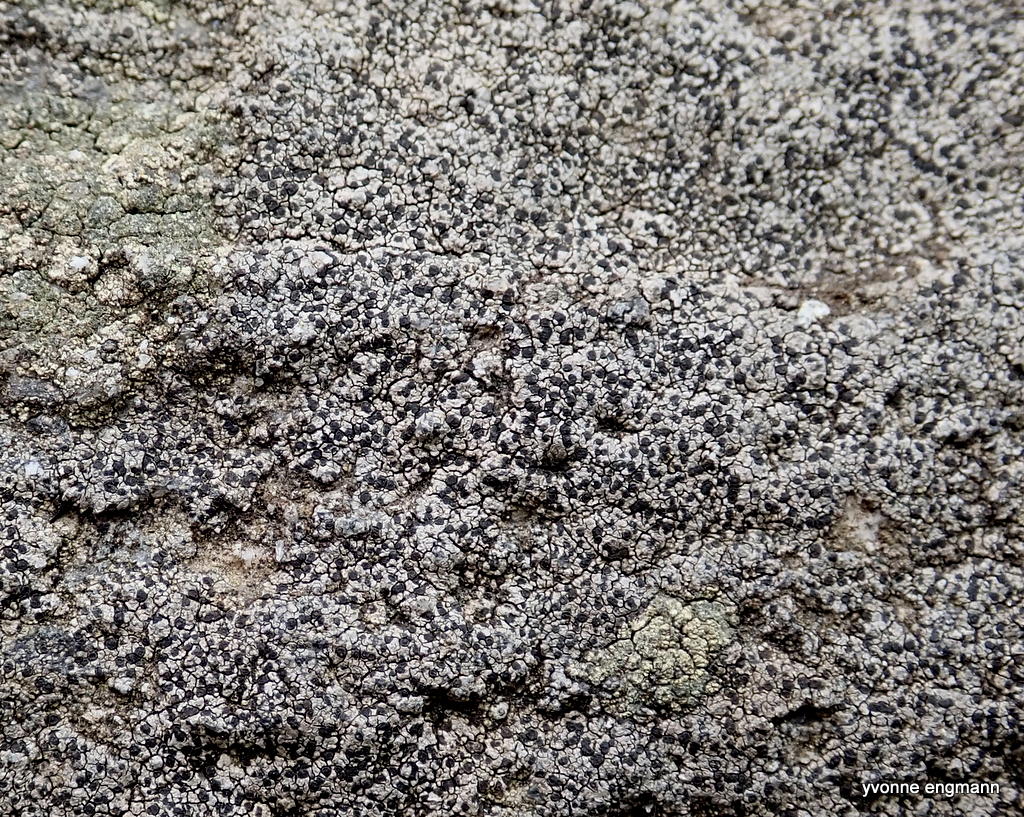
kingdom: Fungi
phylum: Ascomycota
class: Lecanoromycetes
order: Rhizocarpales
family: Rhizocarpaceae
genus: Rhizocarpon
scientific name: Rhizocarpon reductum
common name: mørk landkortlav
